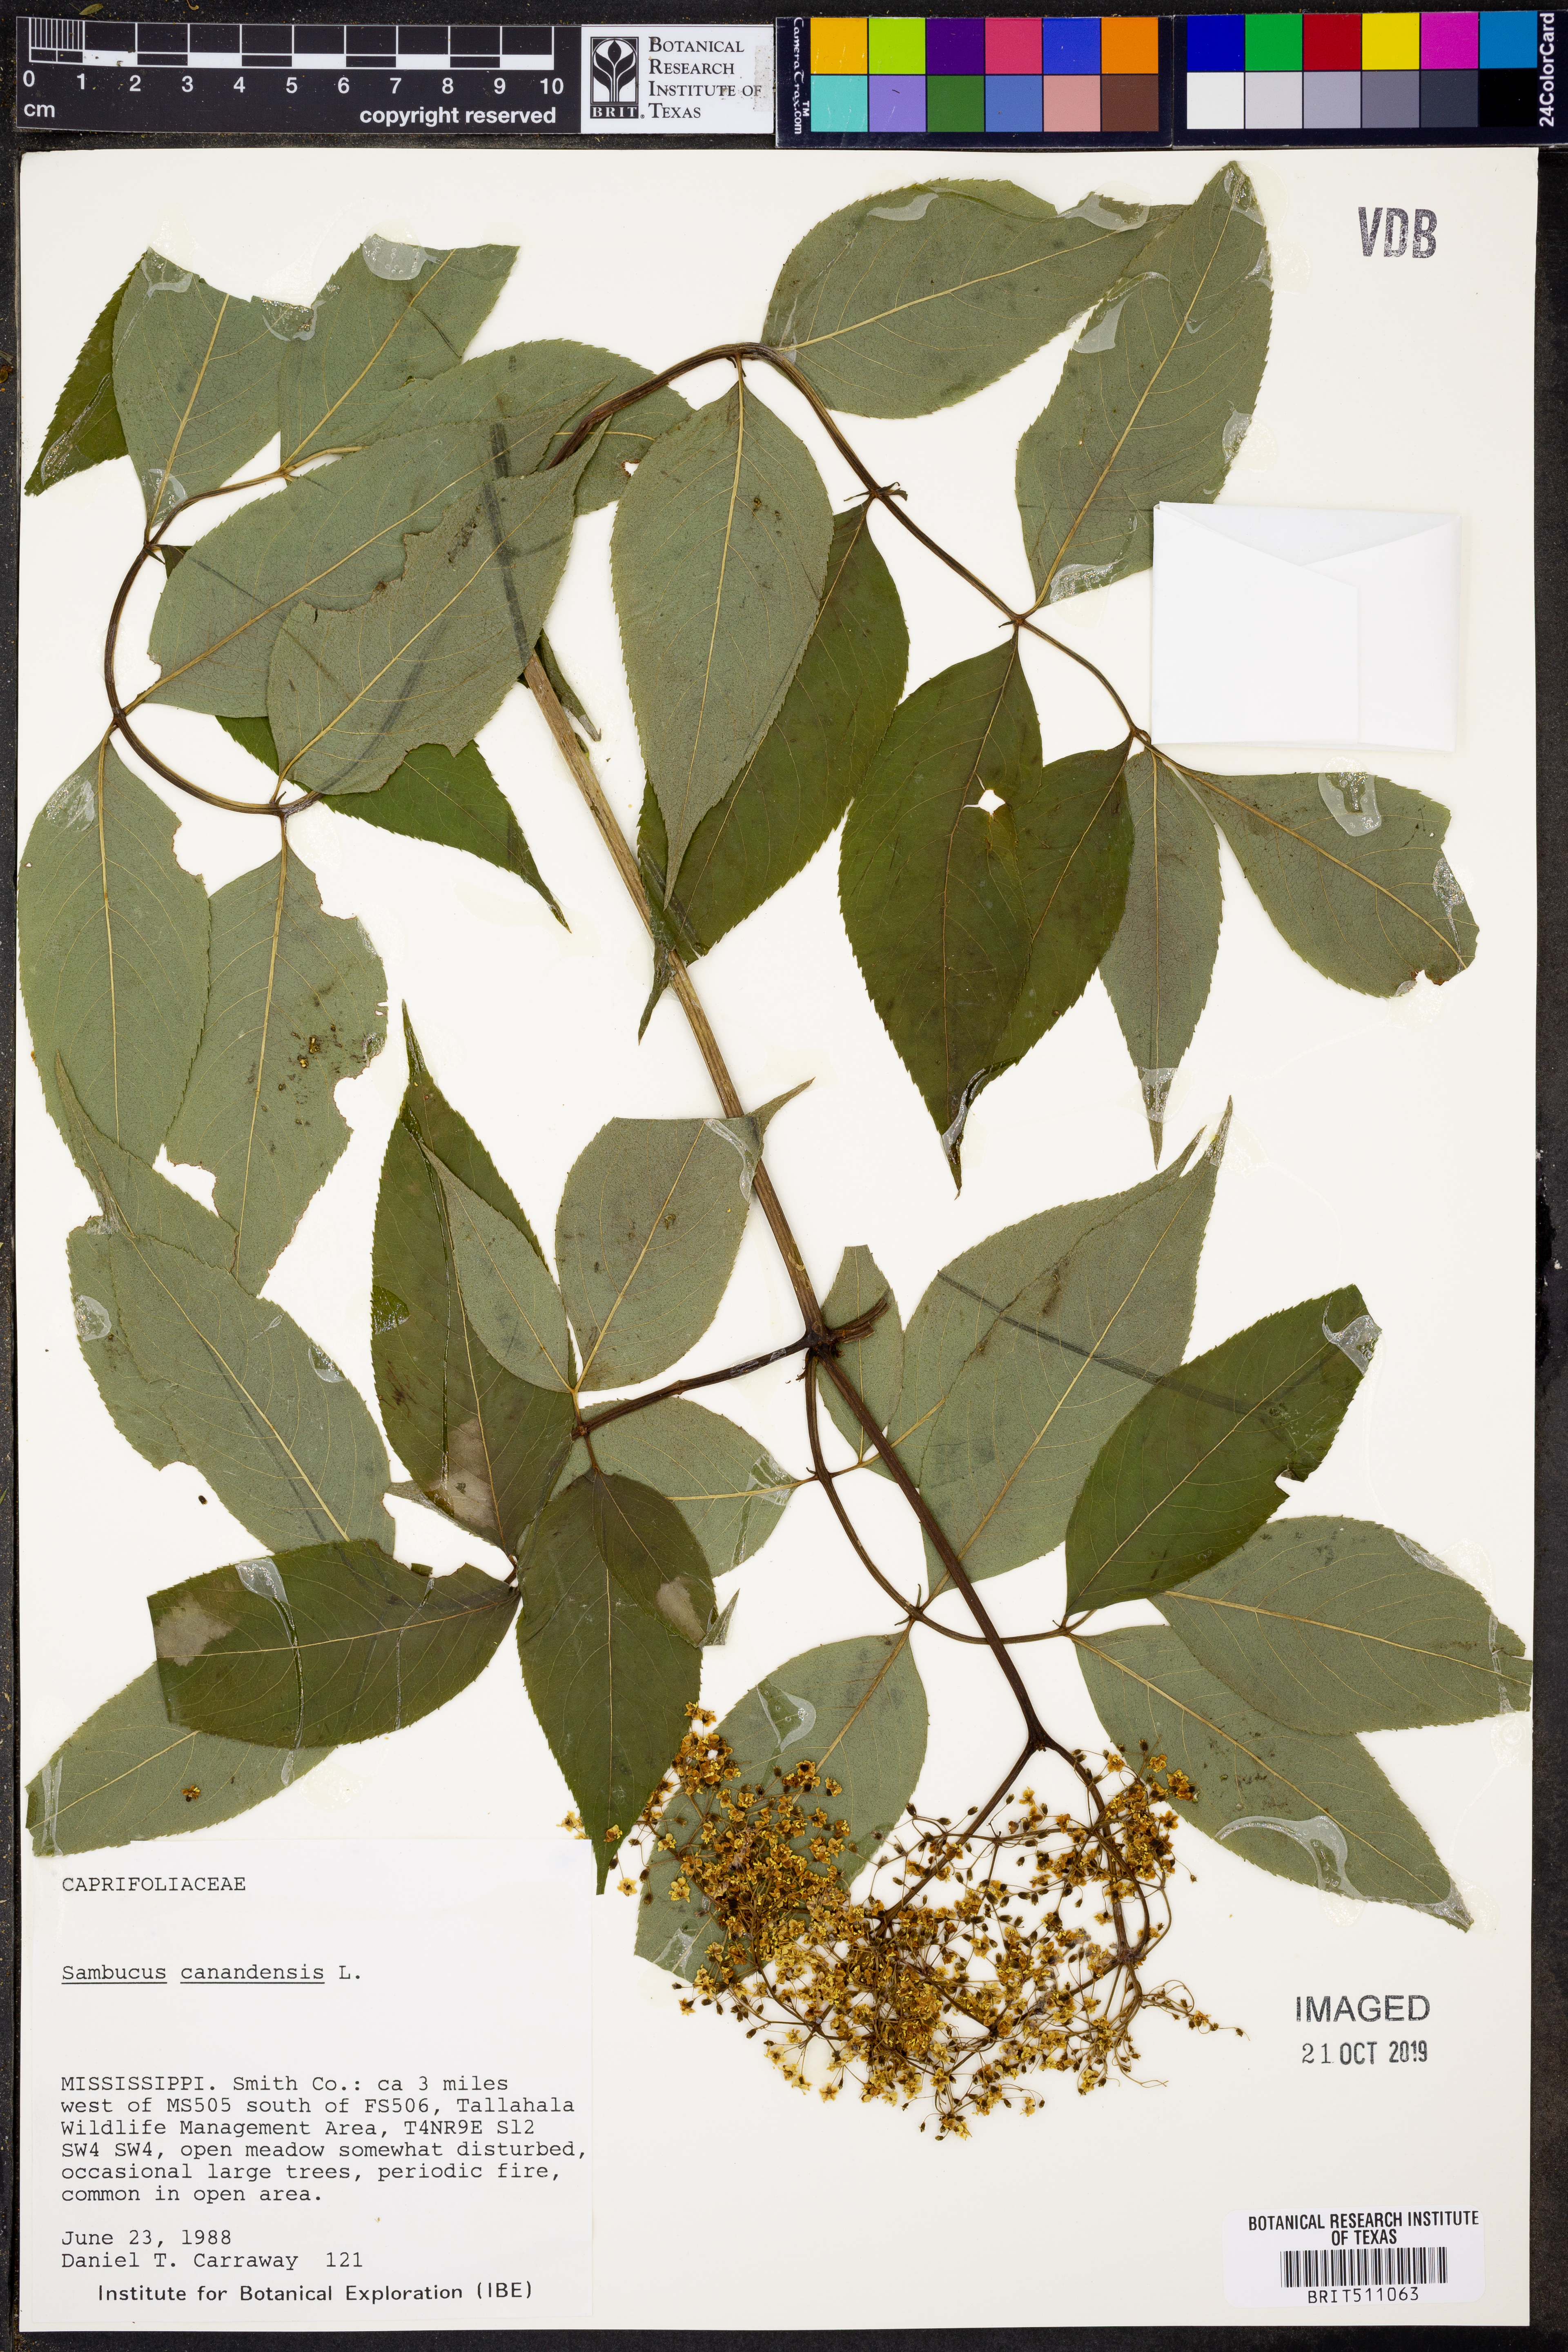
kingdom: Plantae
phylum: Tracheophyta
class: Magnoliopsida
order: Dipsacales
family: Viburnaceae
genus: Sambucus
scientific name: Sambucus canadensis
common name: American elder
